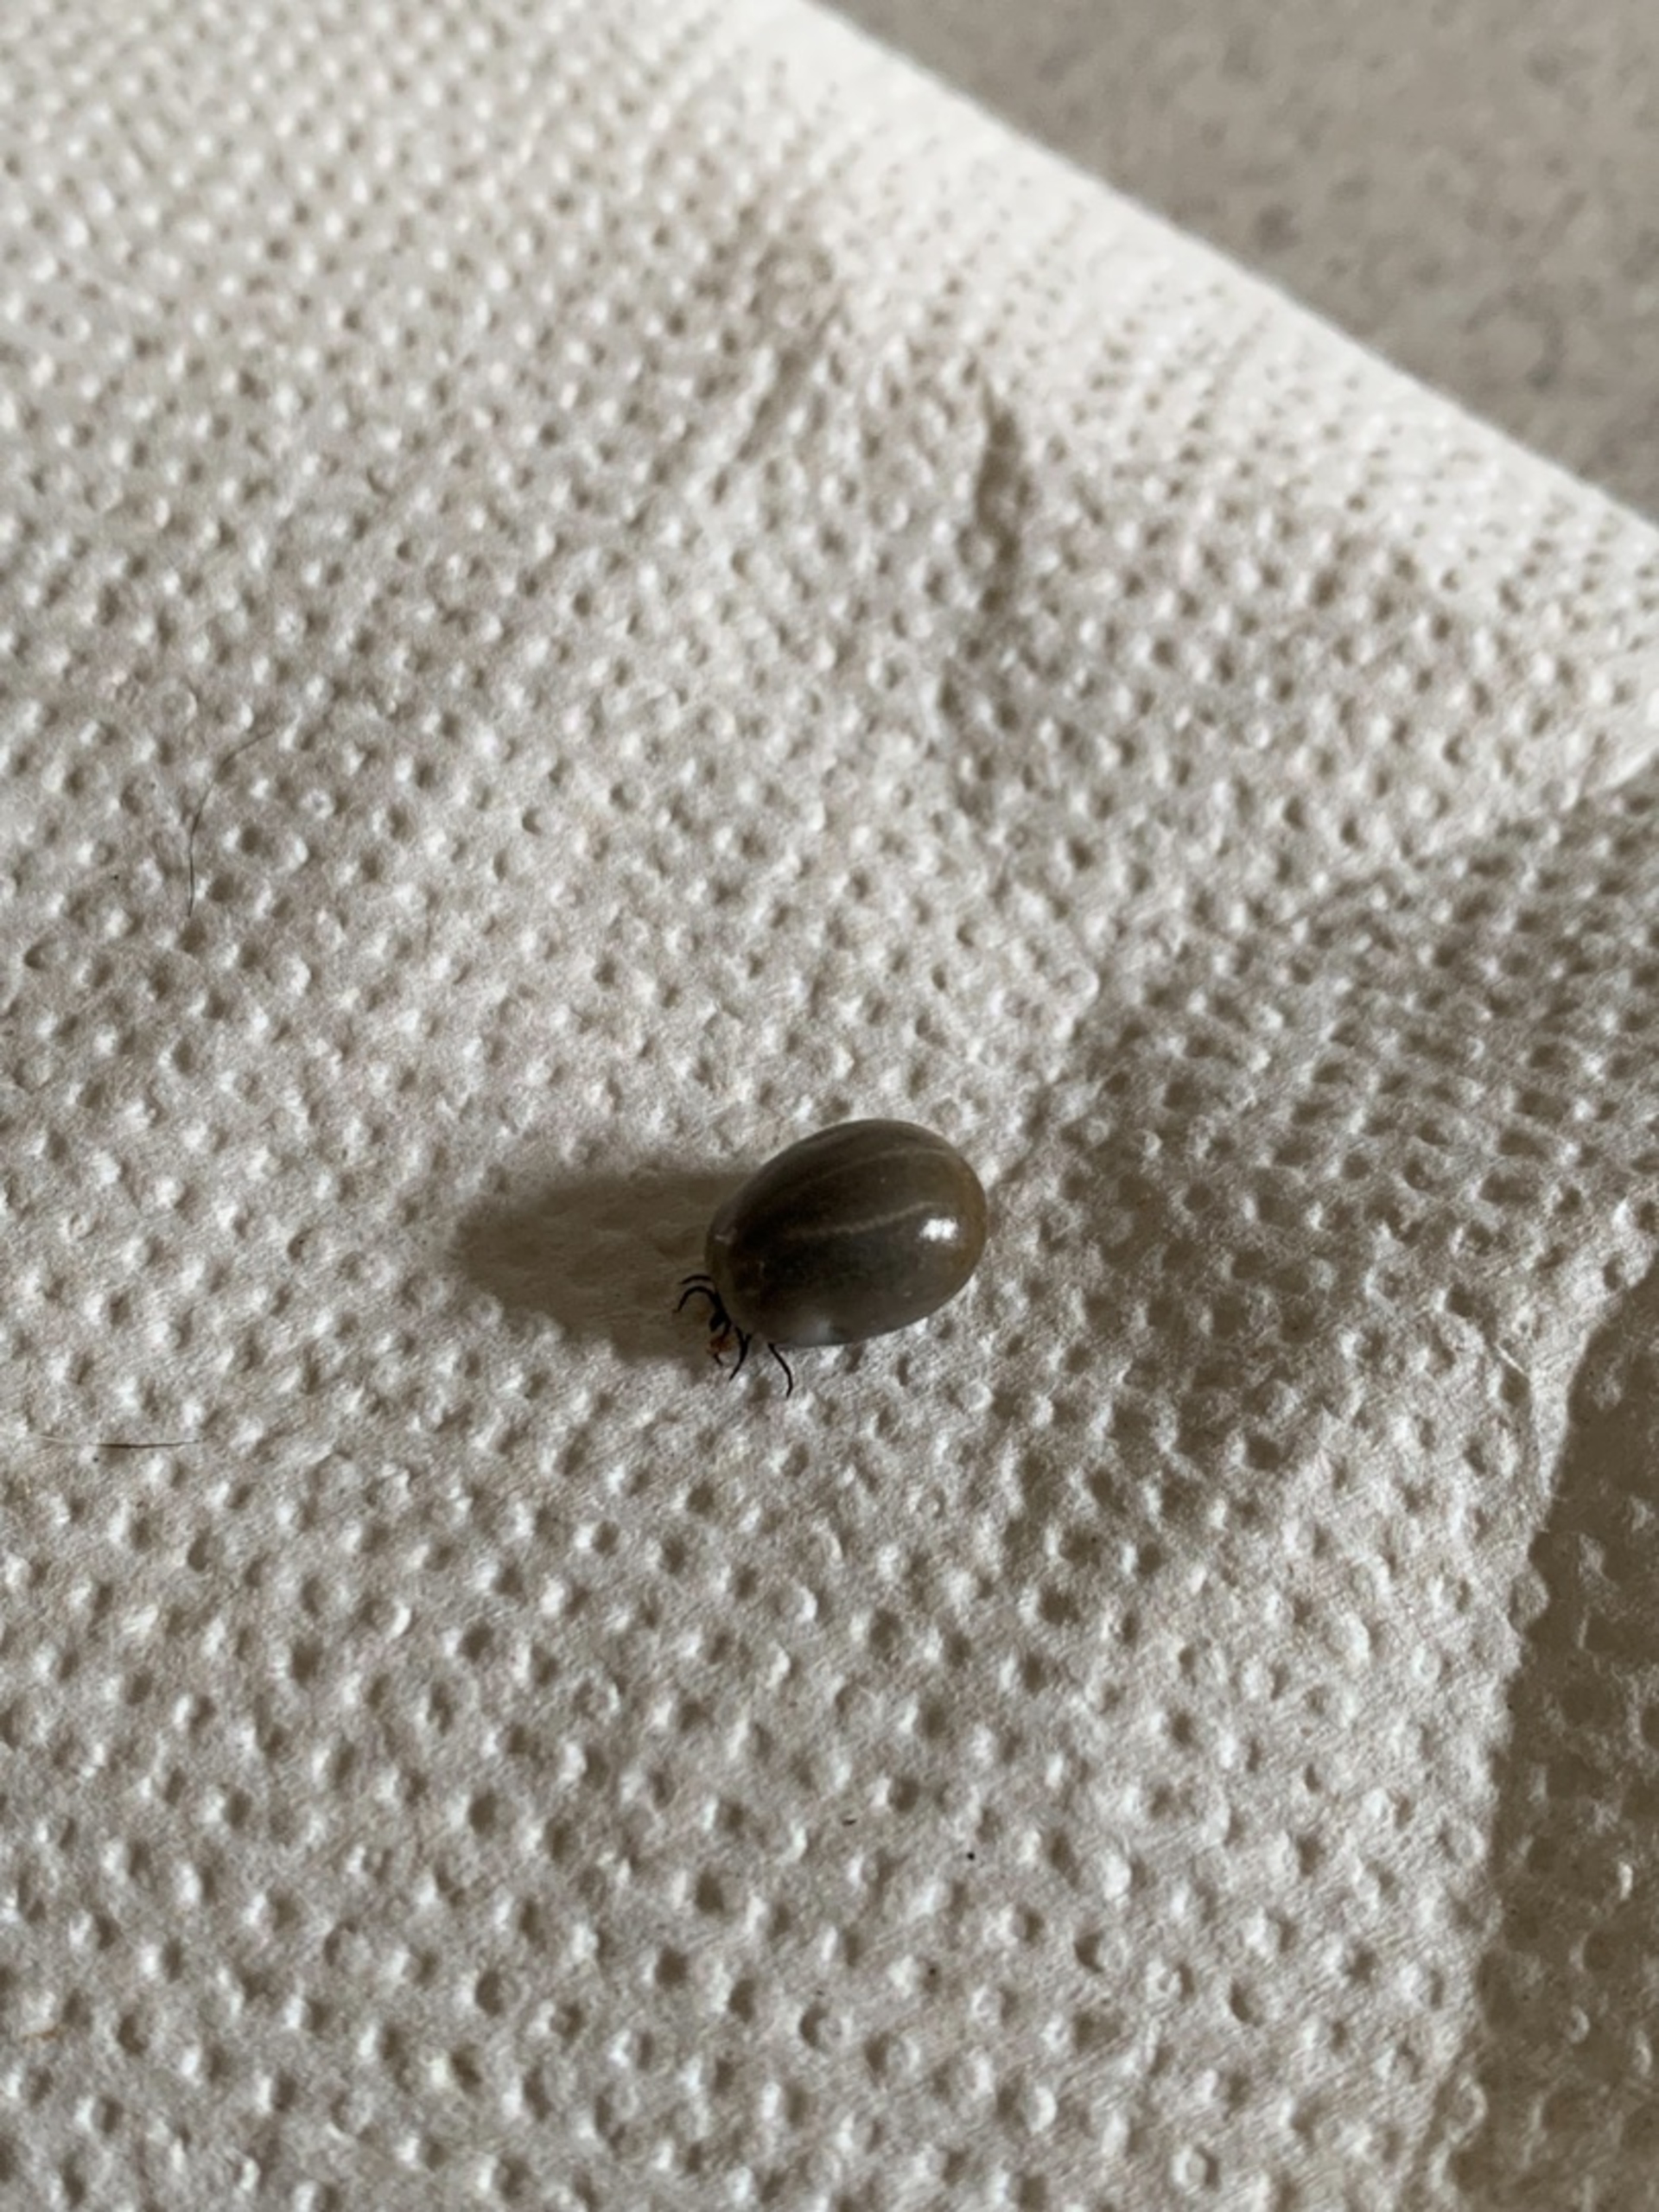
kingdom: Animalia
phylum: Arthropoda
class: Arachnida
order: Ixodida
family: Ixodidae
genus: Ixodes
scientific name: Ixodes ricinus
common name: Skovflåt
